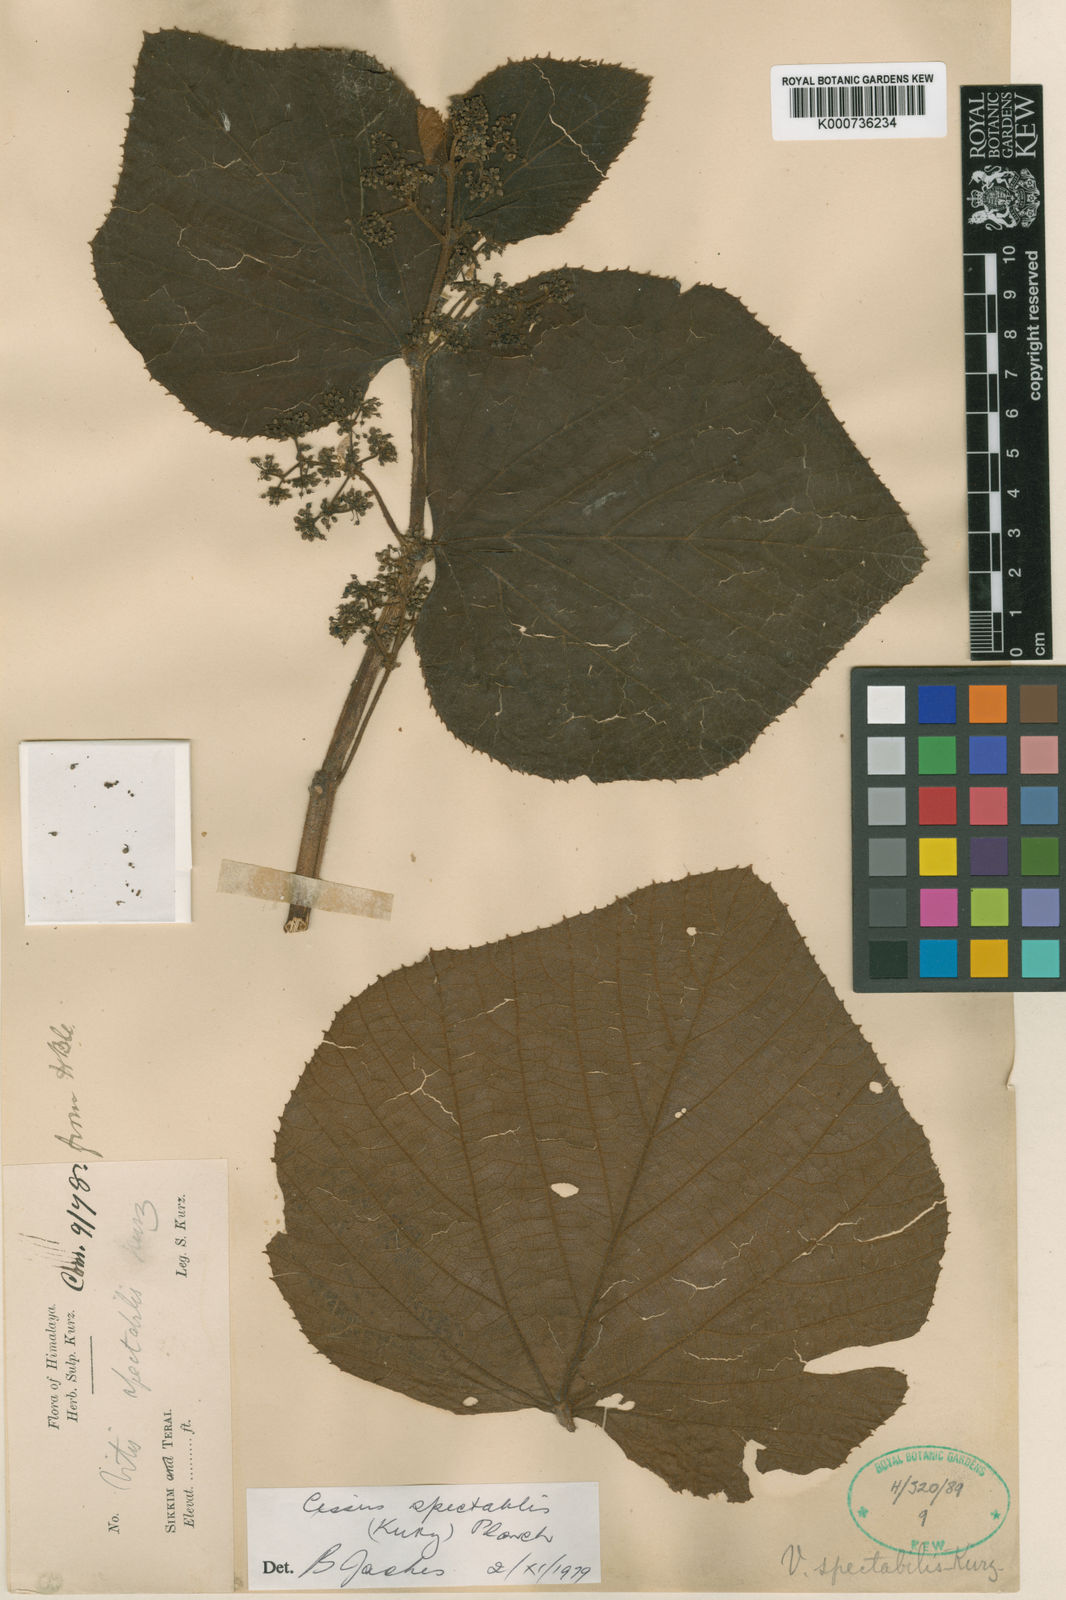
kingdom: Plantae
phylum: Tracheophyta
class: Magnoliopsida
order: Vitales
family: Vitaceae
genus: Cissus
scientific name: Cissus
